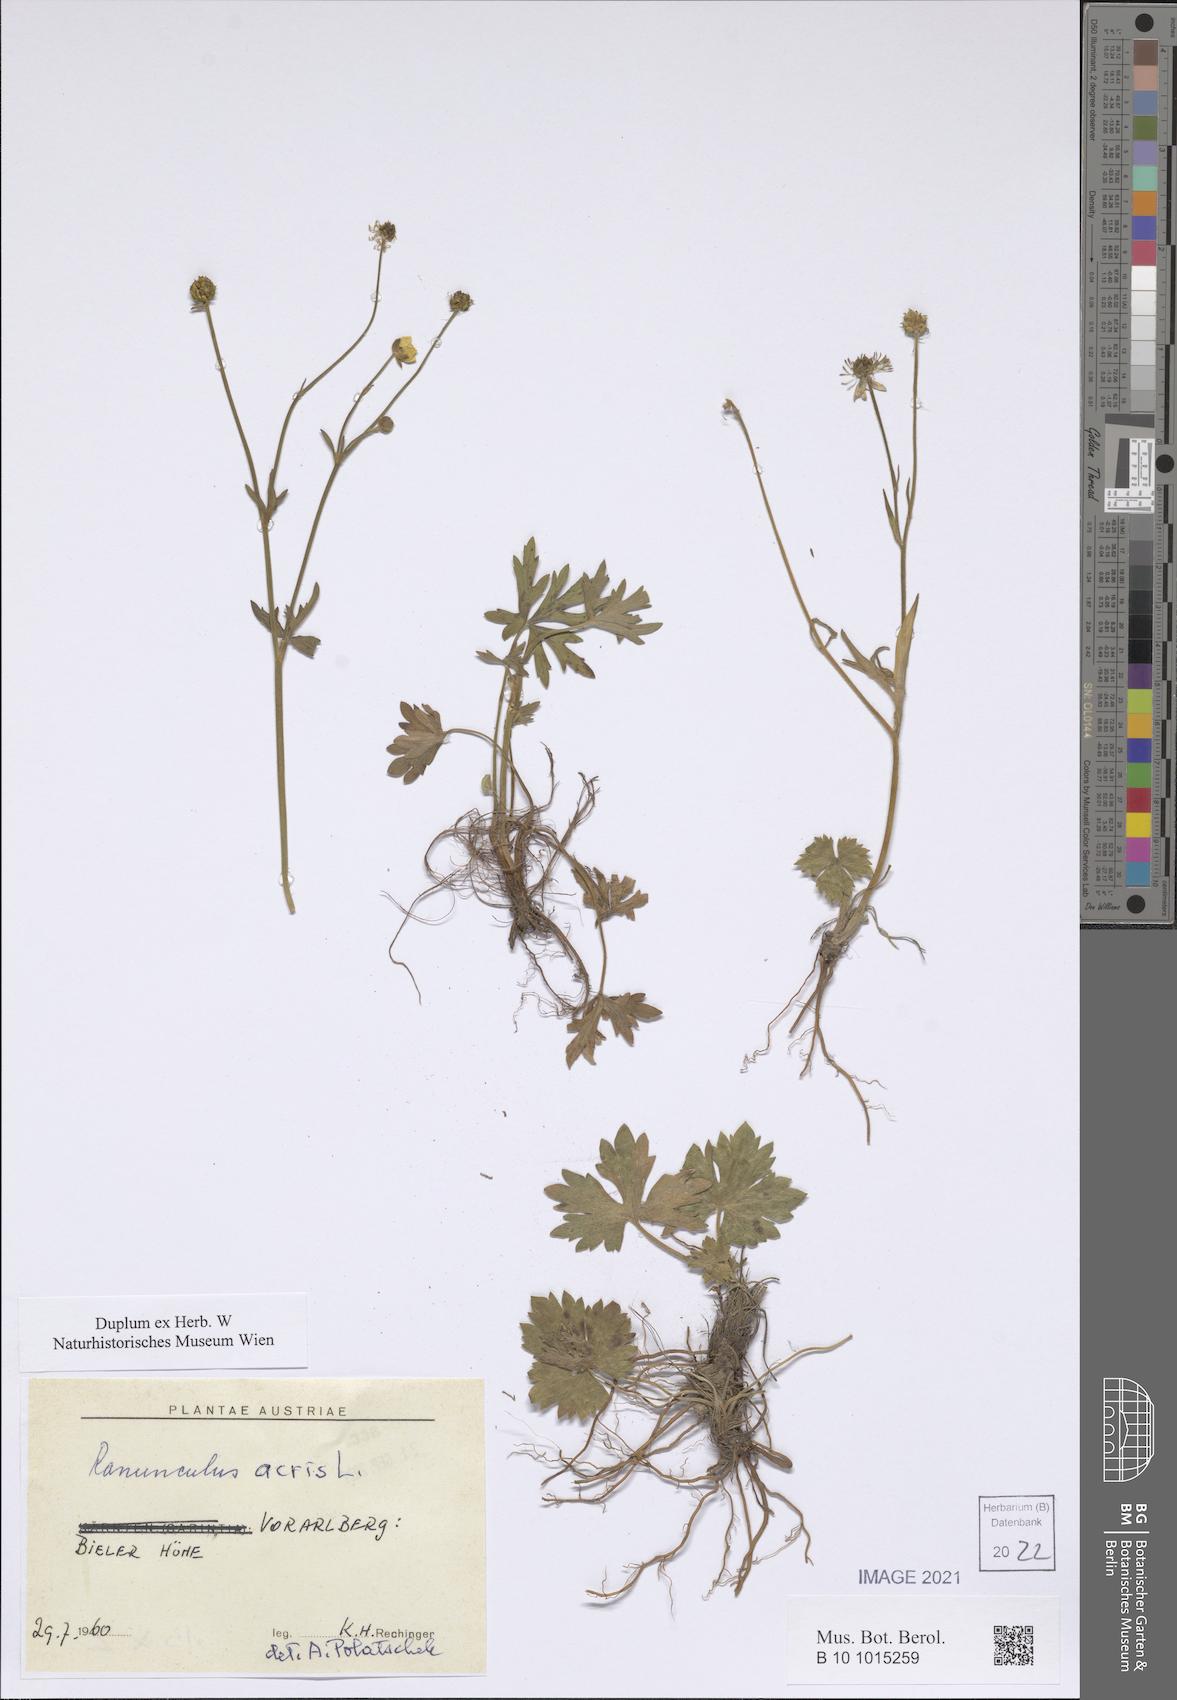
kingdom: Plantae
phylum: Tracheophyta
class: Magnoliopsida
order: Ranunculales
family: Ranunculaceae
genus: Ranunculus
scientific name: Ranunculus acris
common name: Meadow buttercup
